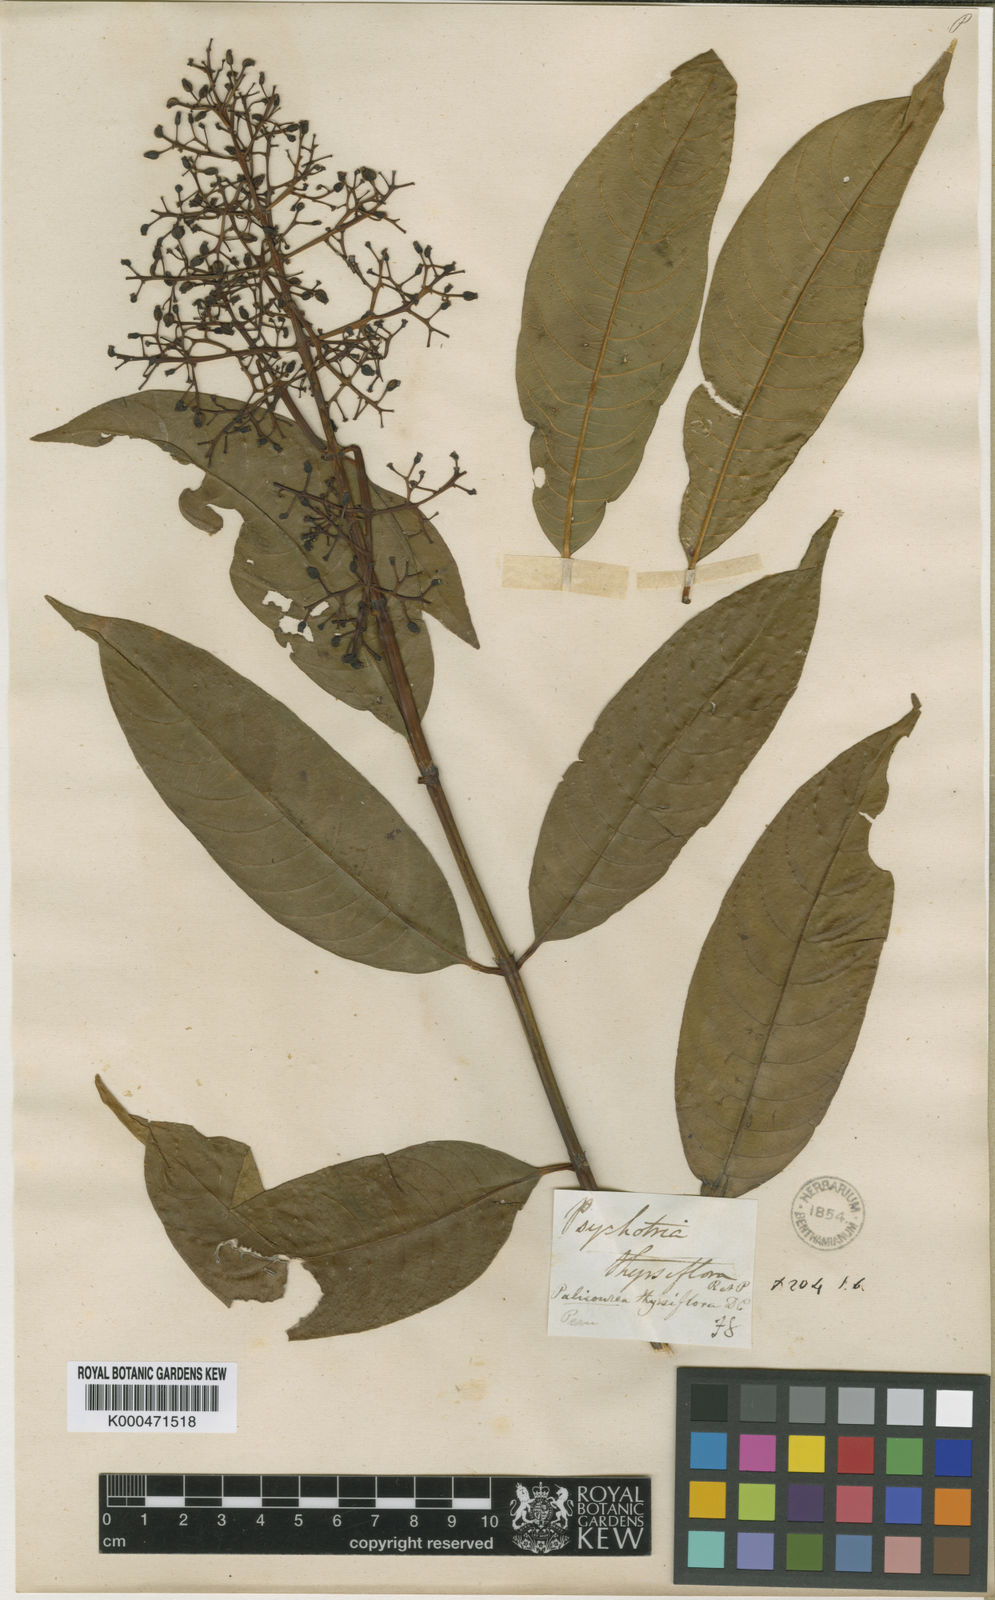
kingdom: Plantae
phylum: Tracheophyta
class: Magnoliopsida
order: Gentianales
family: Rubiaceae
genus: Palicourea
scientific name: Palicourea thyrsiflora
